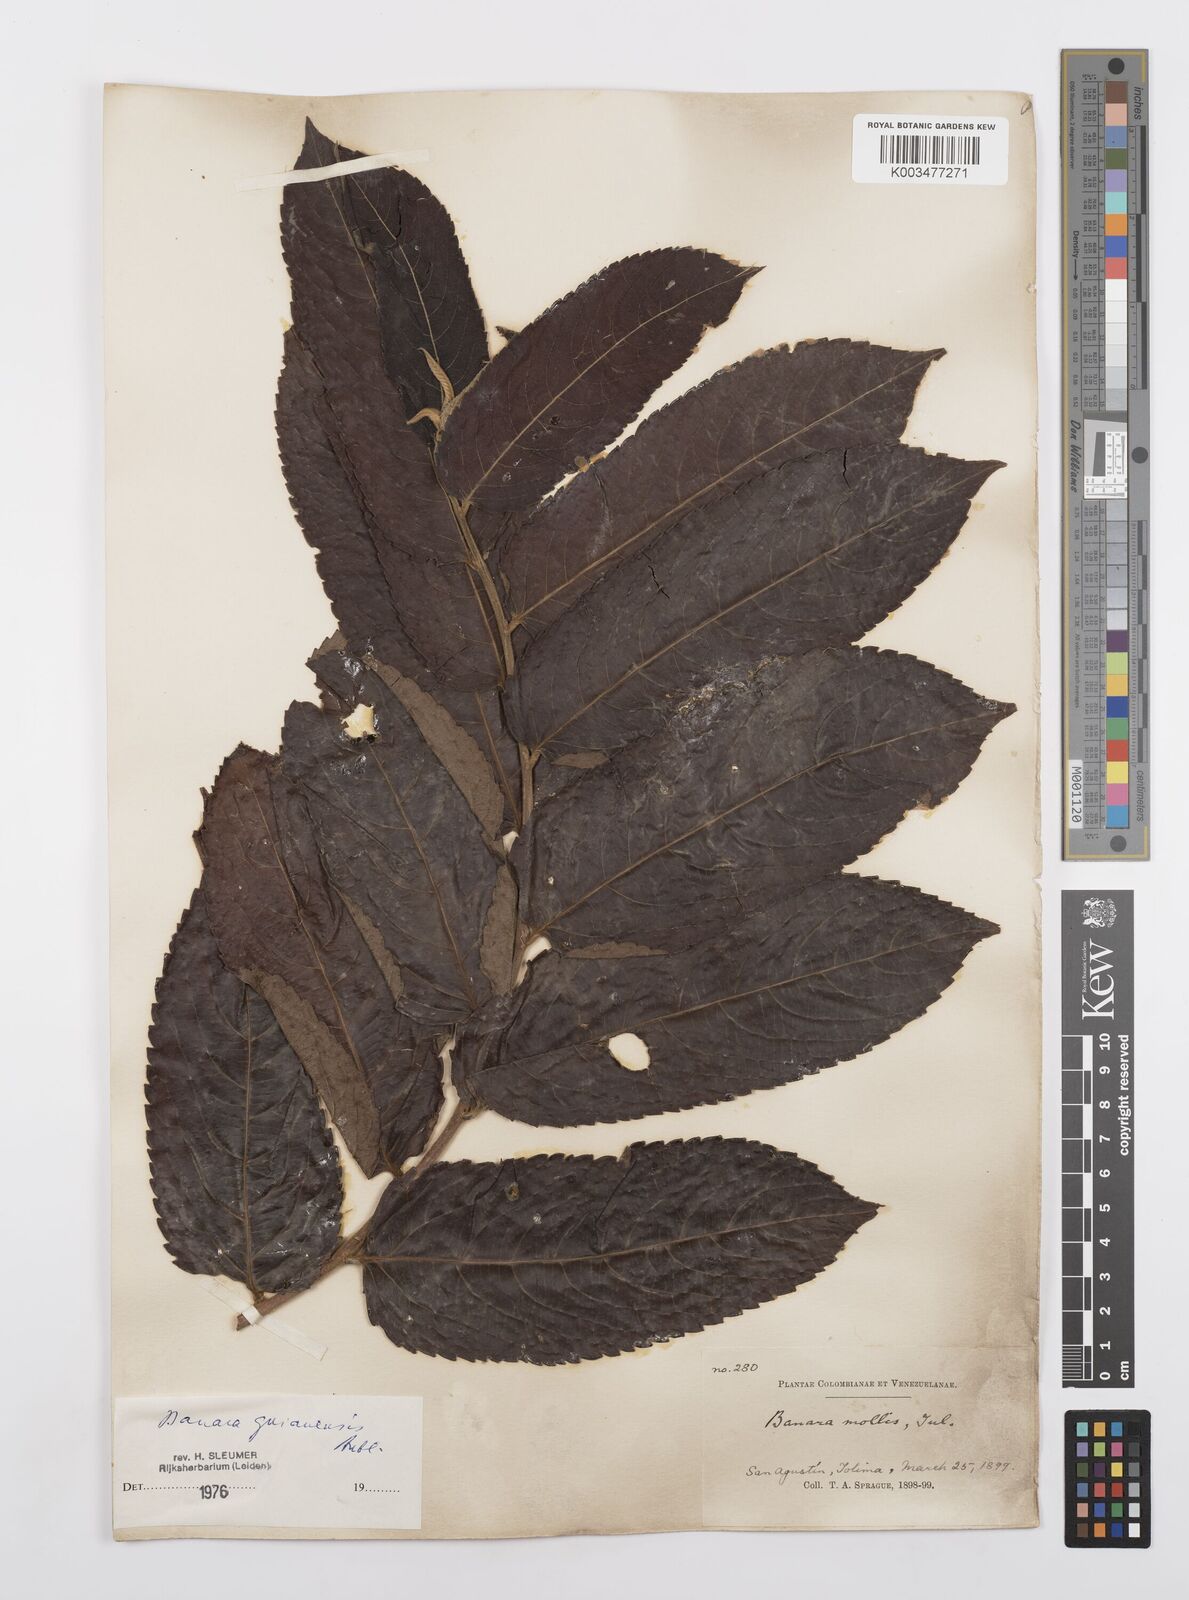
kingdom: Plantae
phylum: Tracheophyta
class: Magnoliopsida
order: Malpighiales
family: Salicaceae
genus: Banara
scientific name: Banara guianensis
